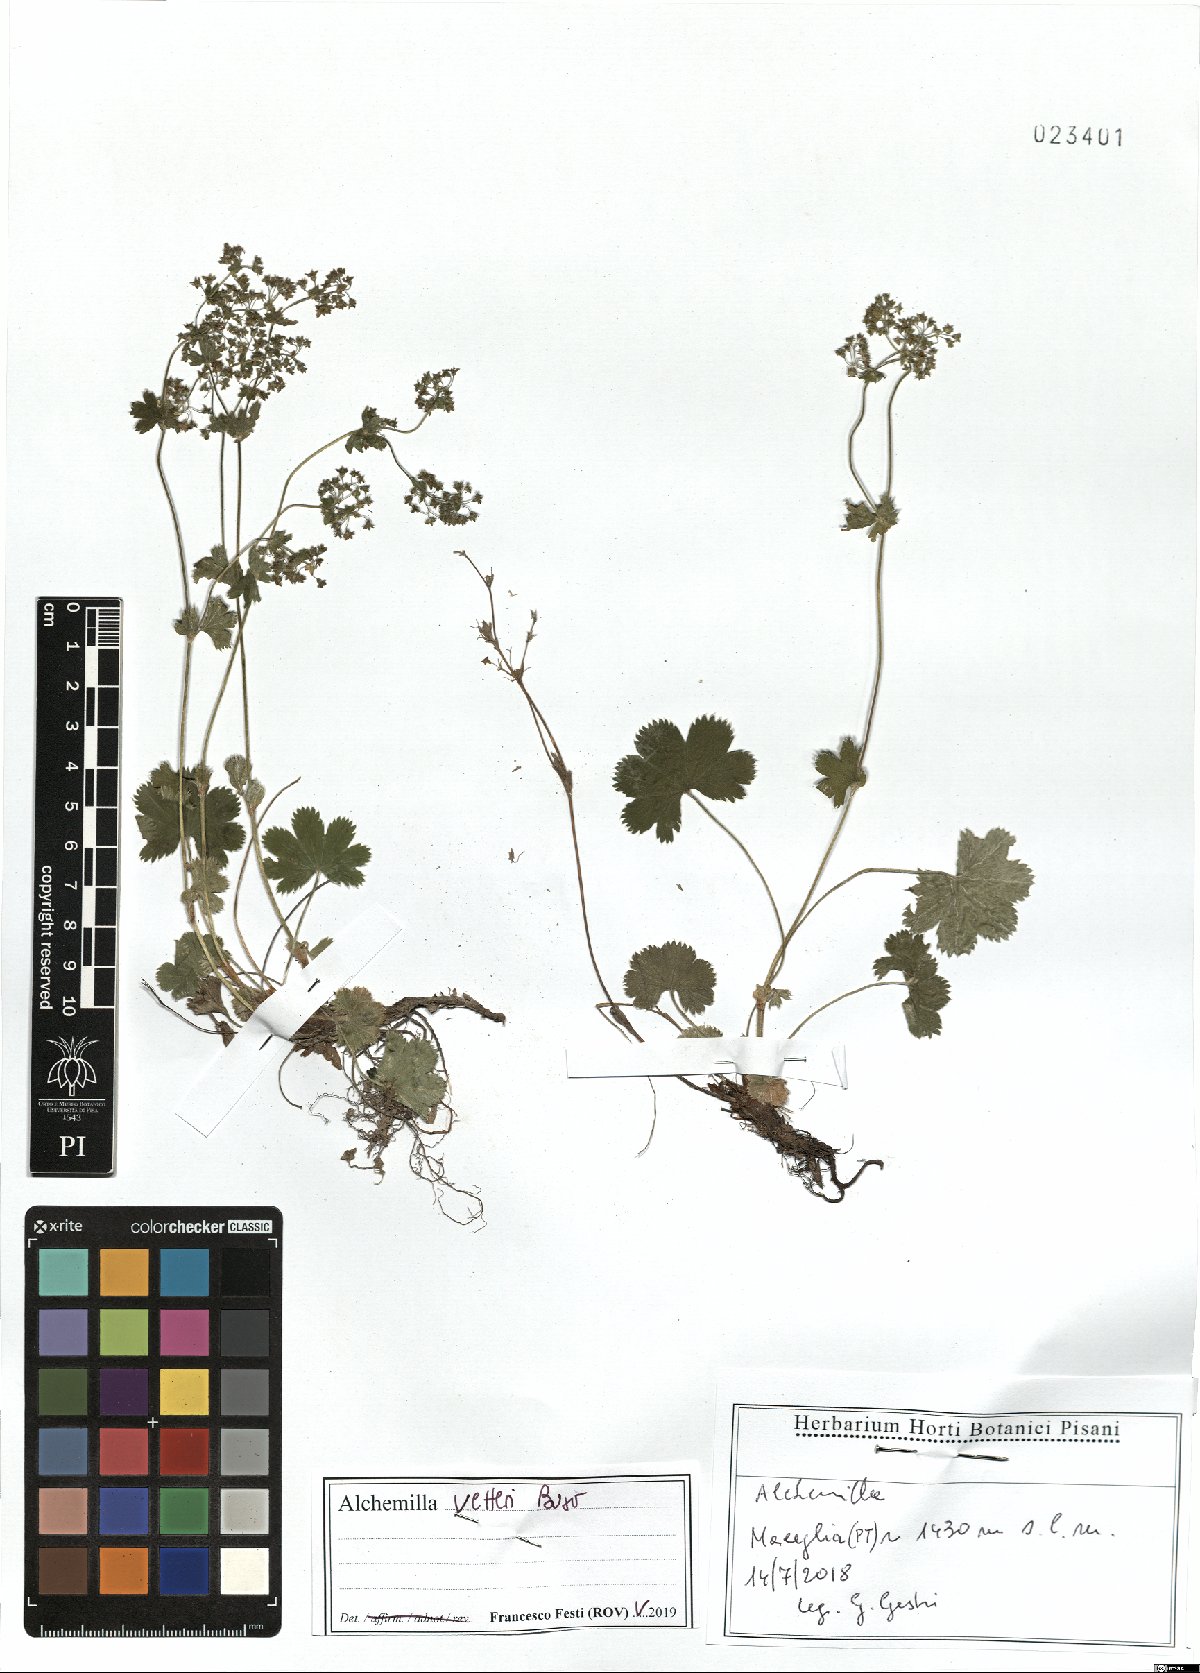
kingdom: Plantae
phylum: Tracheophyta
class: Magnoliopsida
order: Rosales
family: Rosaceae
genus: Alchemilla
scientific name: Alchemilla vetteri
